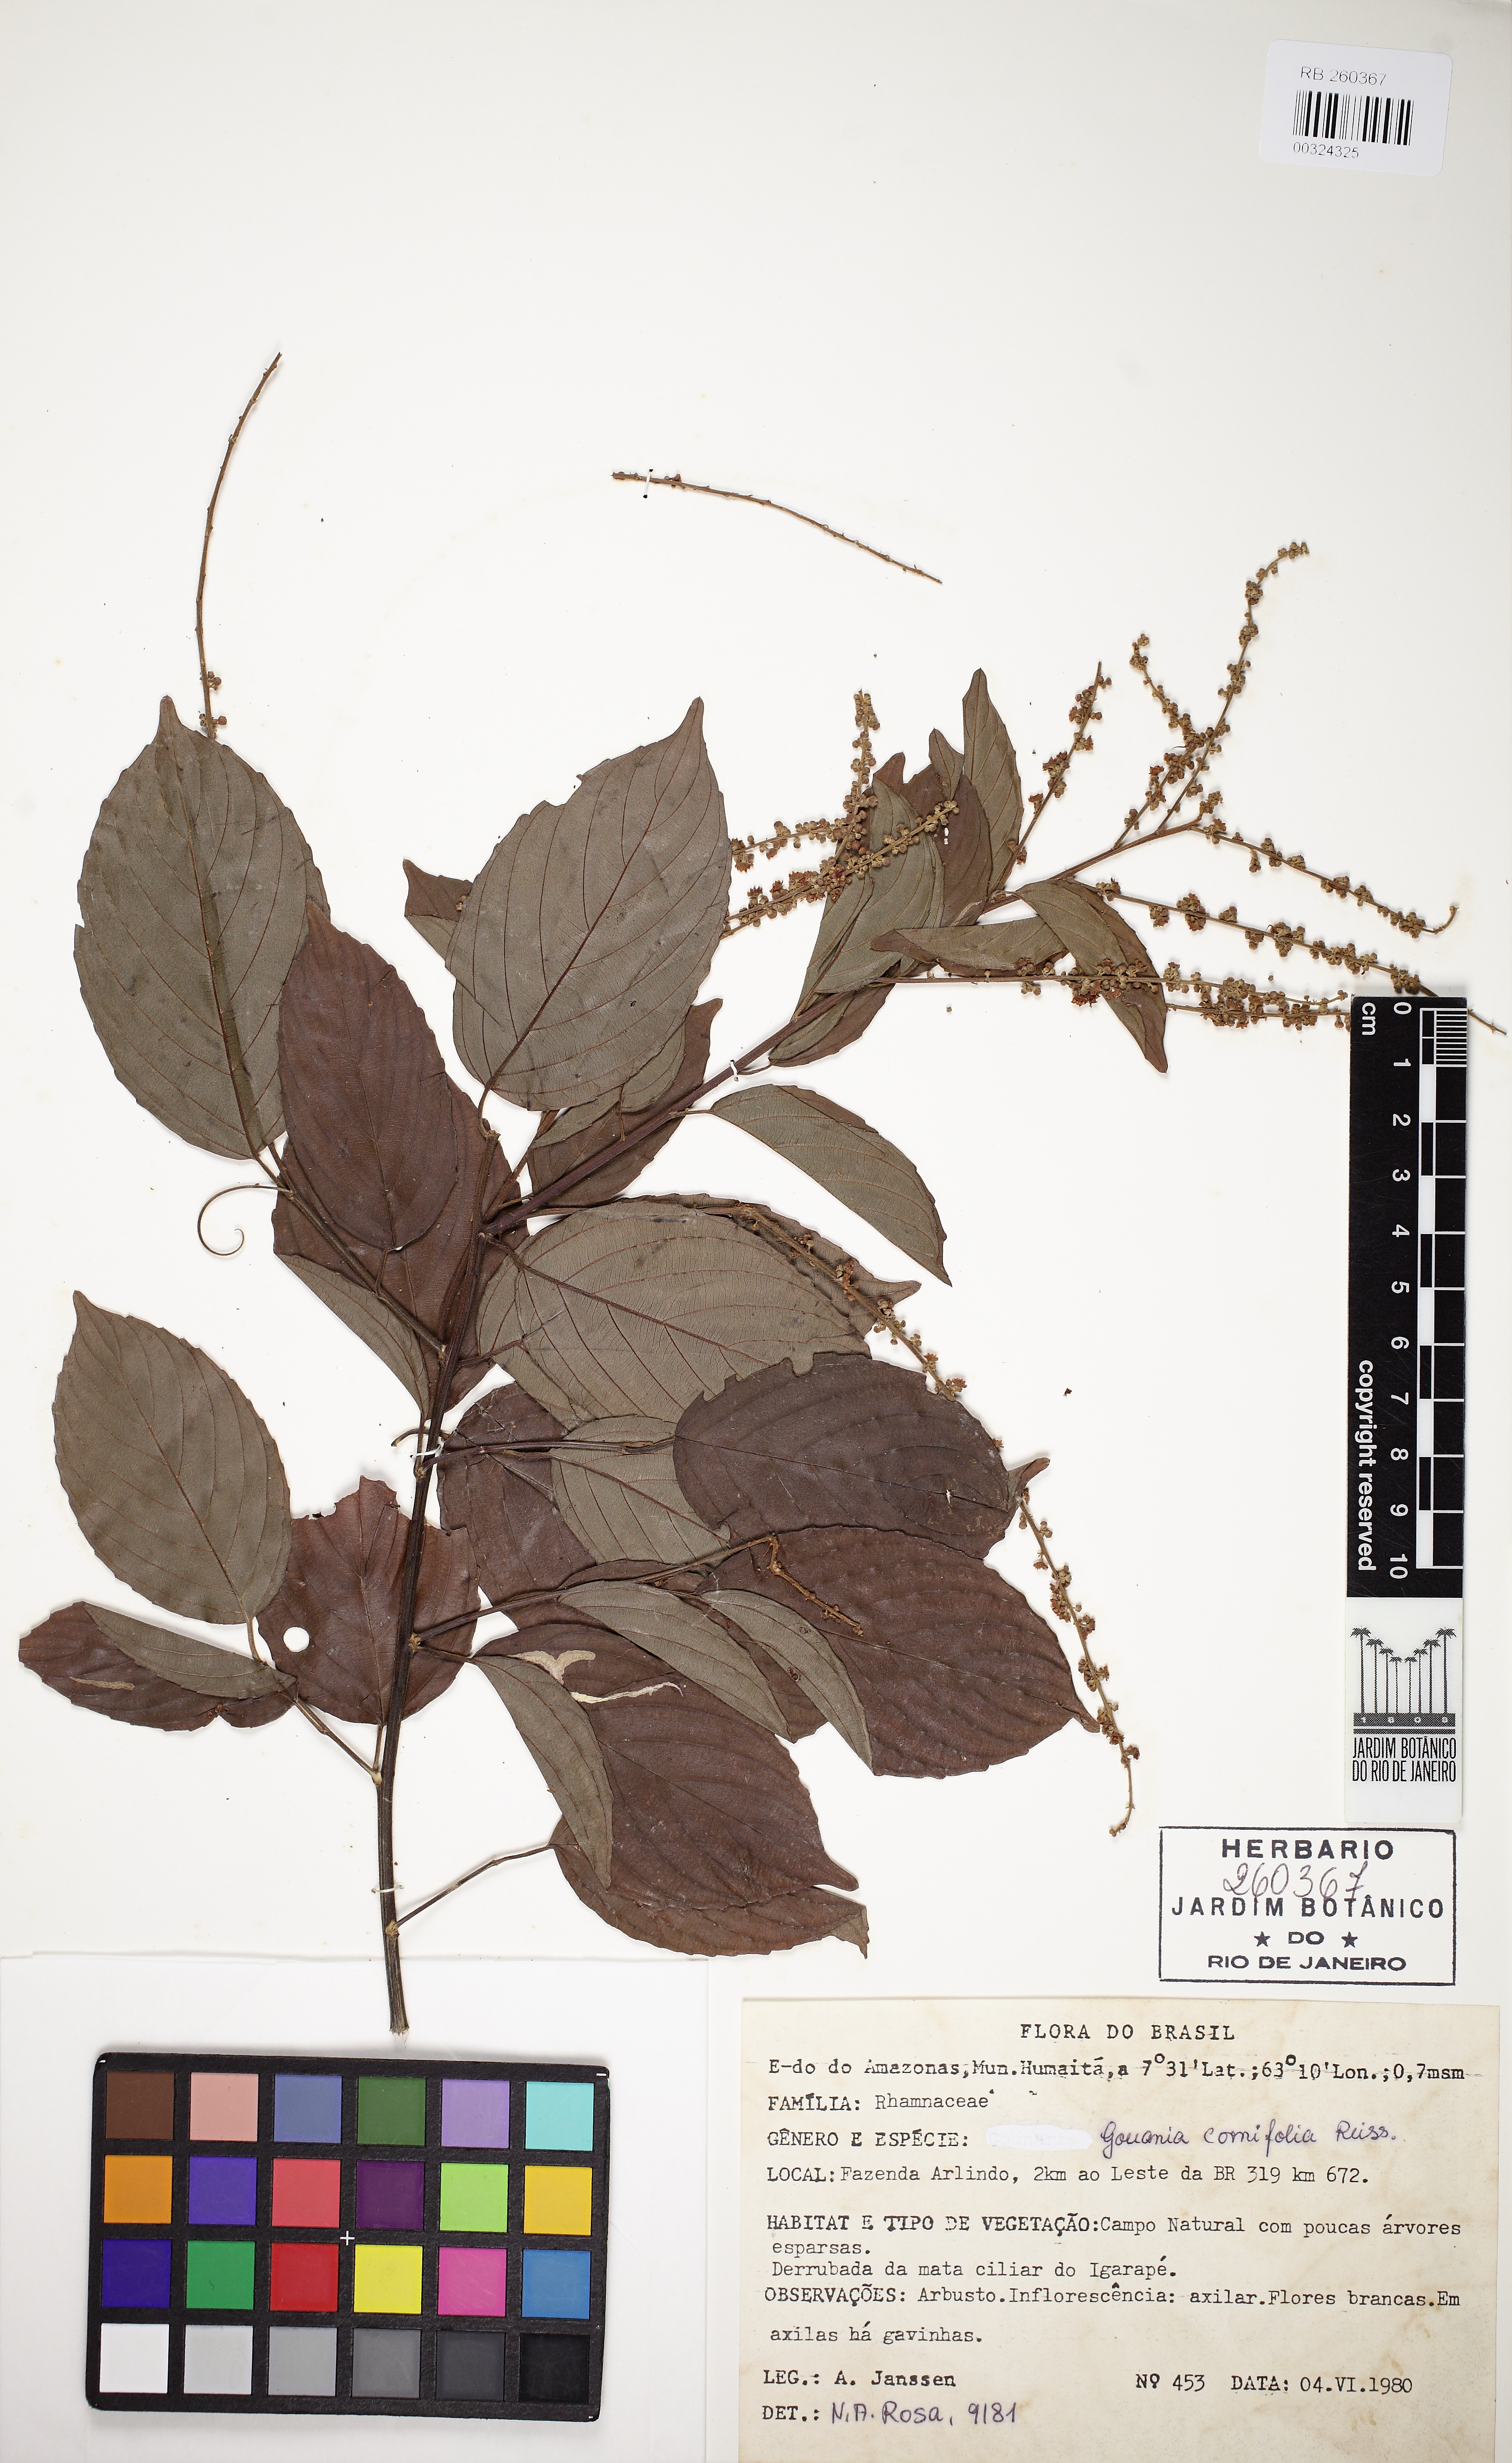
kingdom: Plantae
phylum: Tracheophyta
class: Magnoliopsida
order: Rosales
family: Rhamnaceae
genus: Gouania
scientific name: Gouania cornifolia
